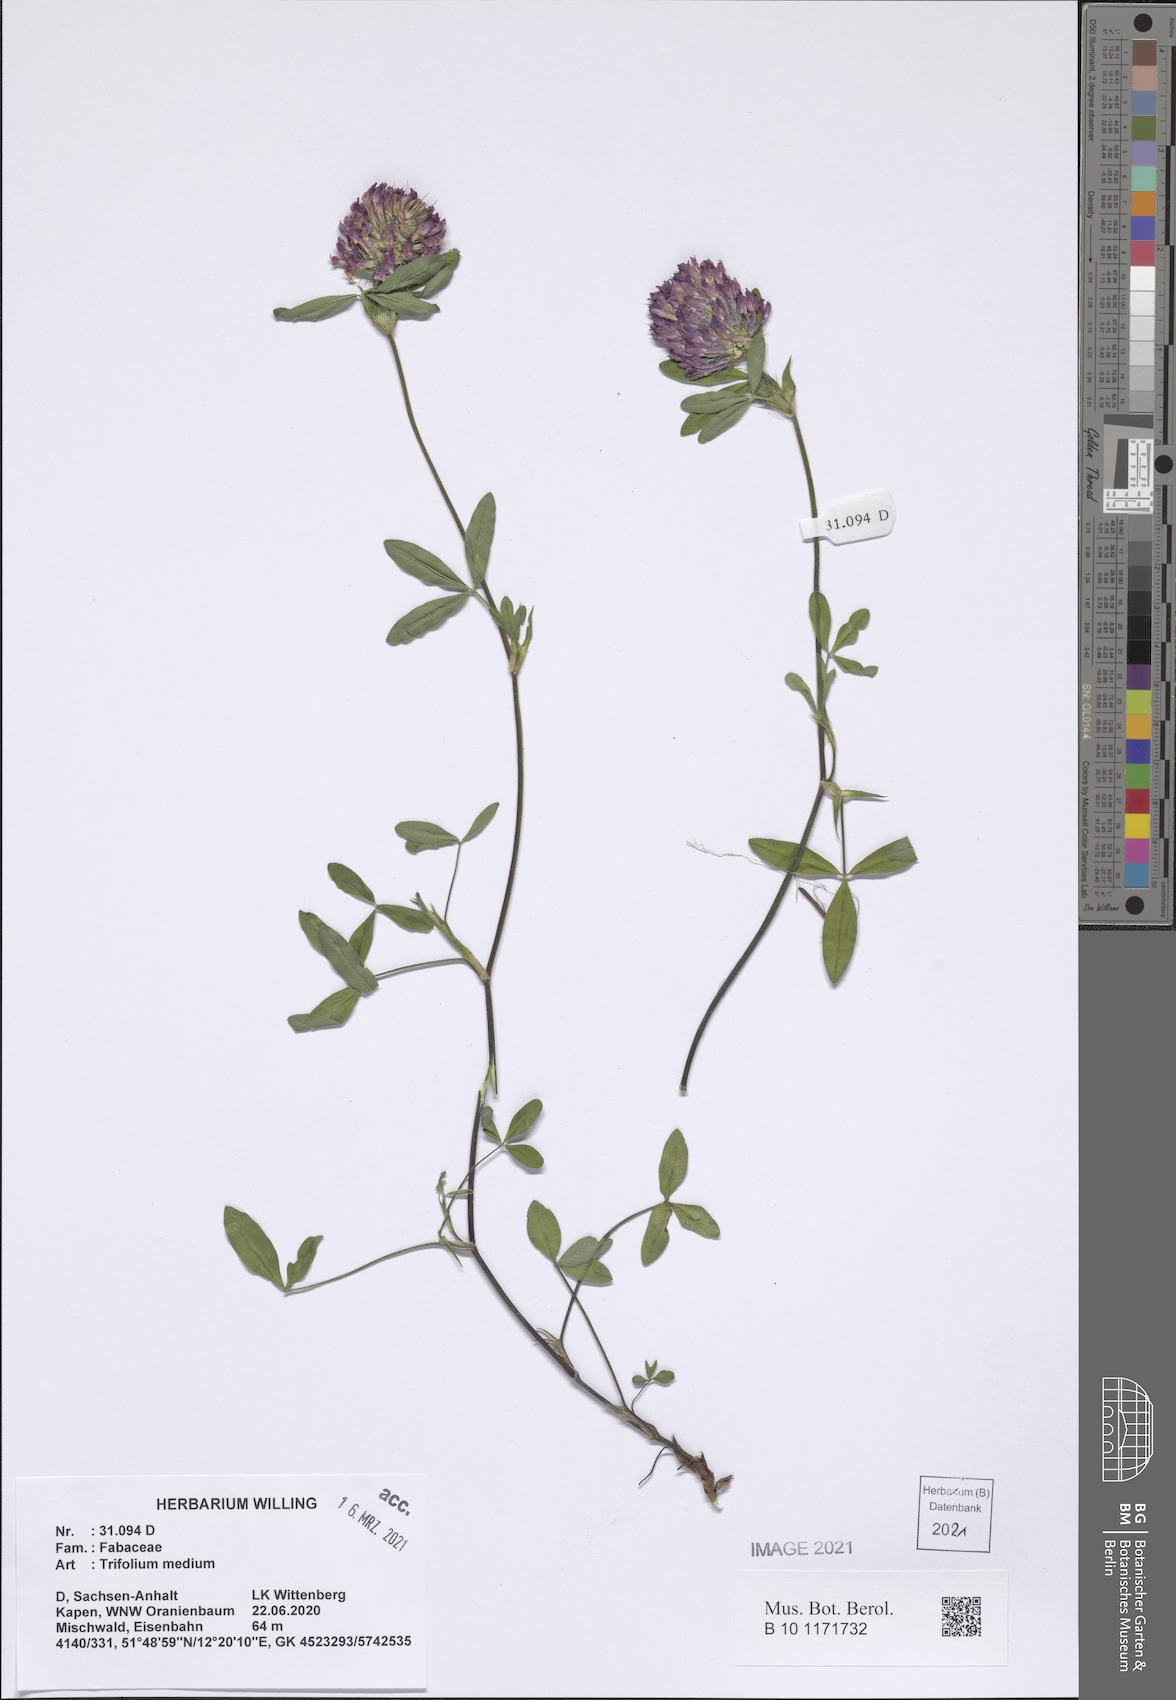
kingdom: Plantae
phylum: Tracheophyta
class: Magnoliopsida
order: Fabales
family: Fabaceae
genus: Trifolium
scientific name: Trifolium medium
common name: Zigzag clover
